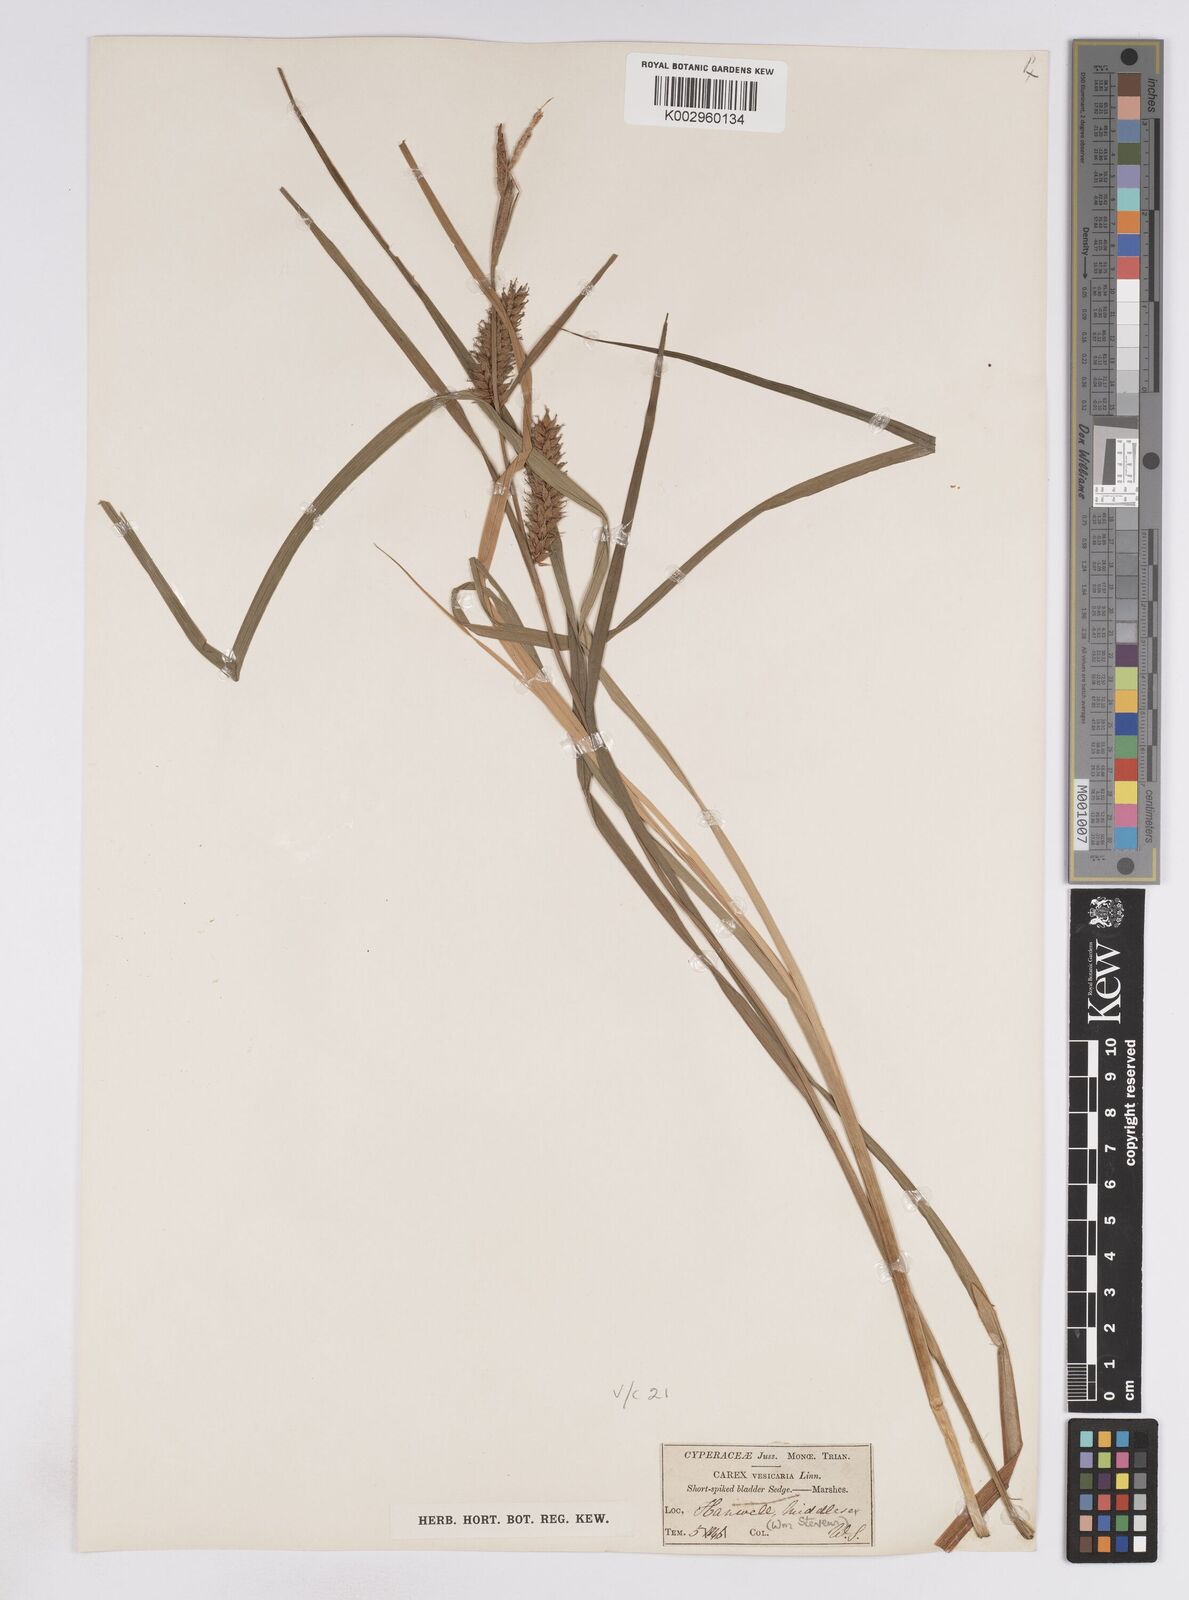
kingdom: Plantae
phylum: Tracheophyta
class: Liliopsida
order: Poales
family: Cyperaceae
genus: Carex
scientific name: Carex vesicaria
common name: Bladder-sedge
